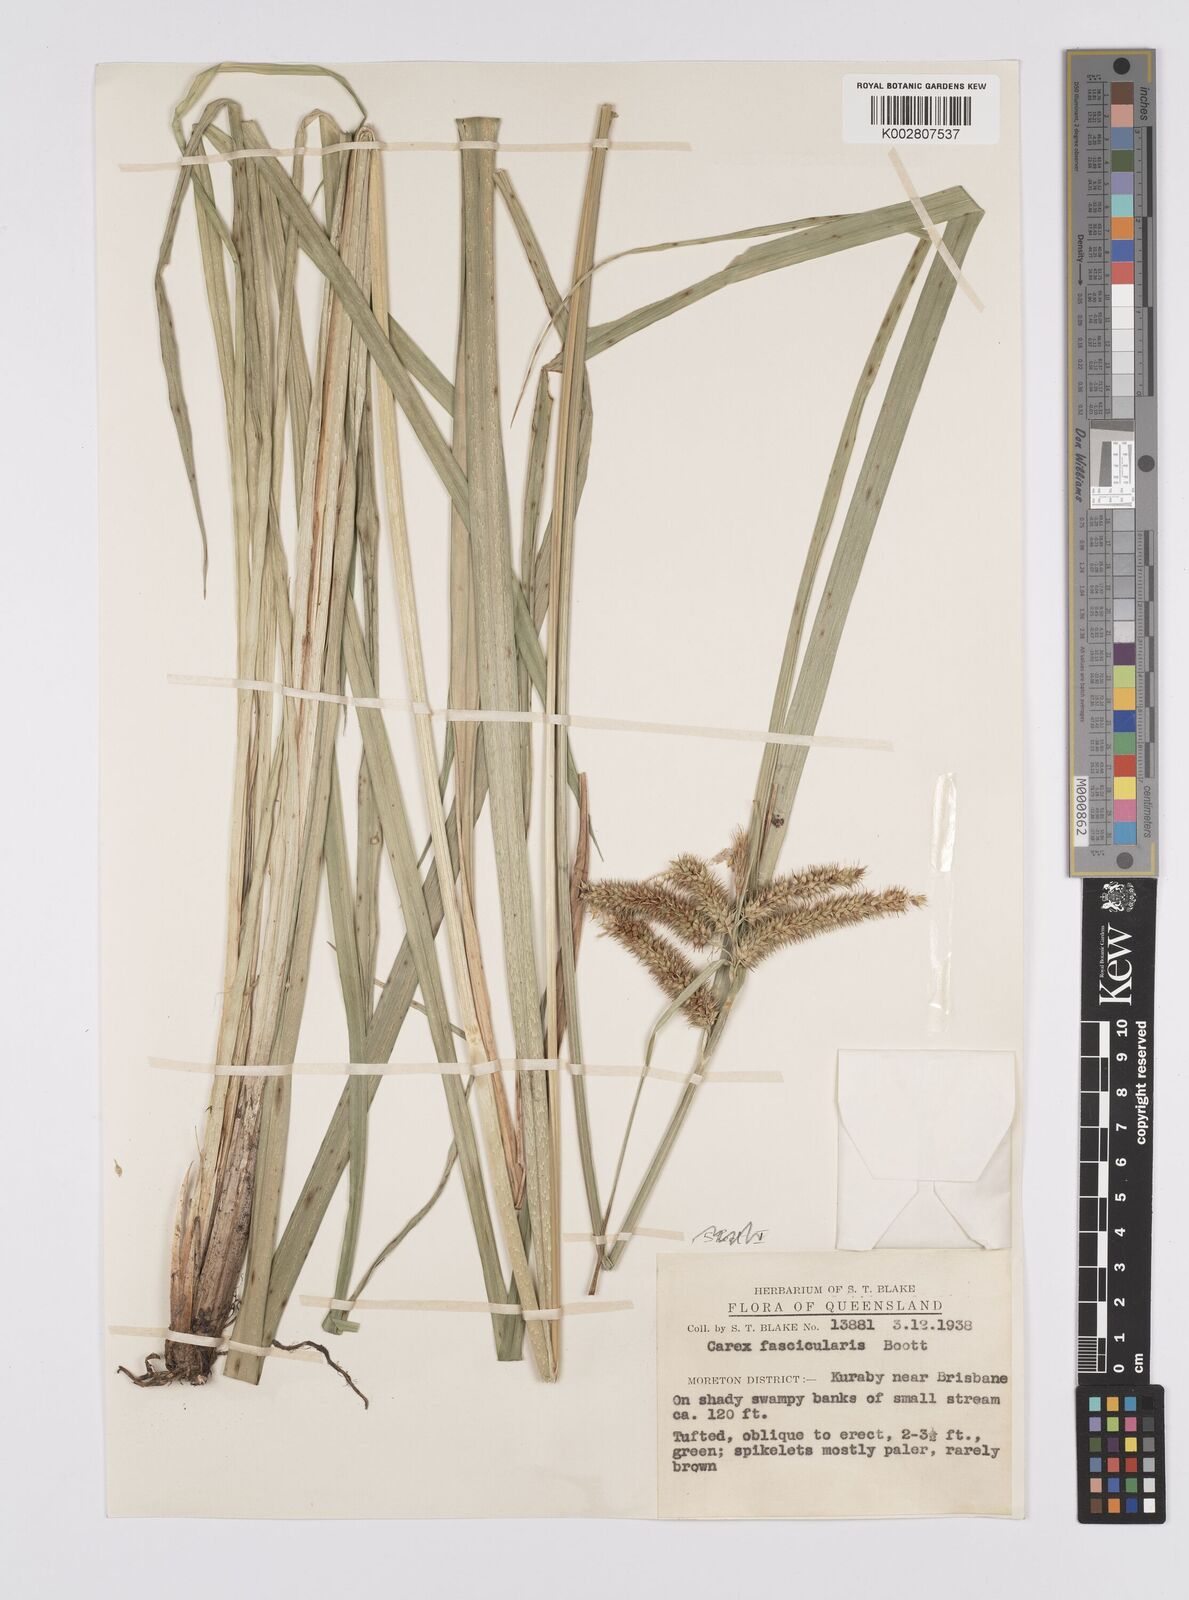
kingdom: Plantae
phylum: Tracheophyta
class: Liliopsida
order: Poales
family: Cyperaceae
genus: Carex
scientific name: Carex cespitosa
